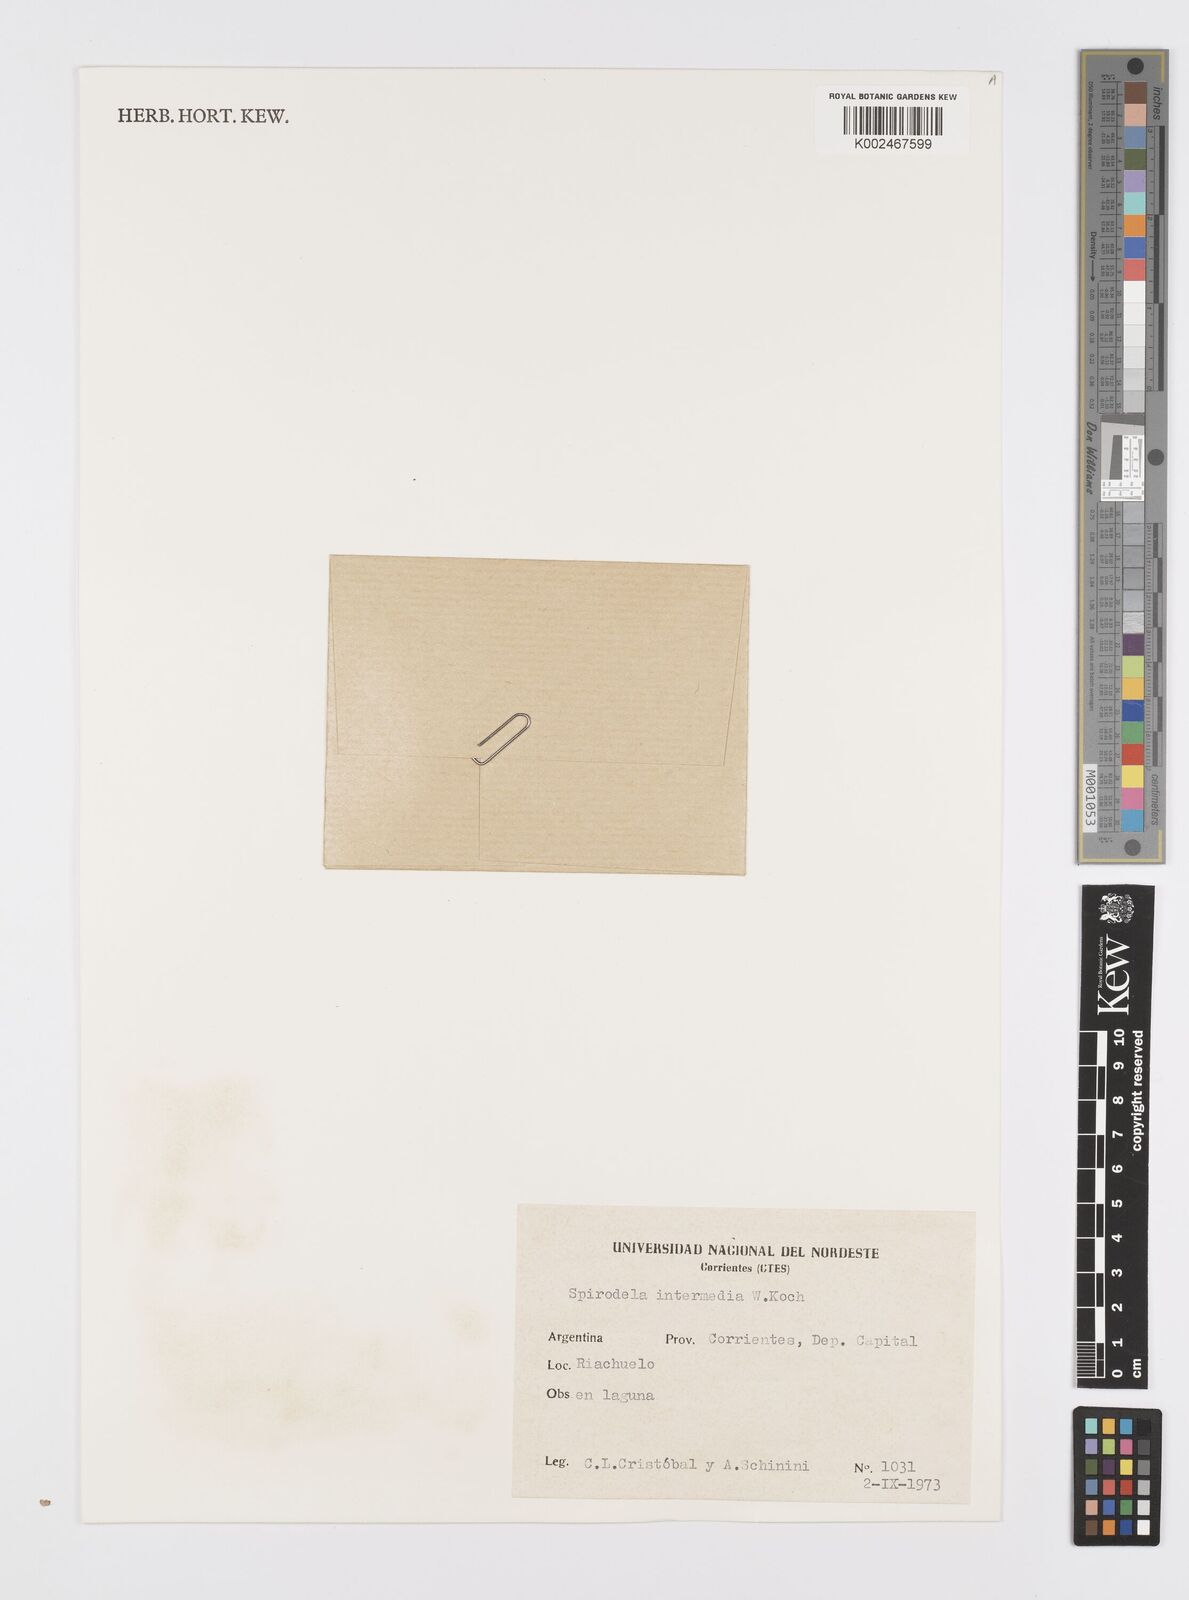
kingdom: Plantae
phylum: Tracheophyta
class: Liliopsida
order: Alismatales
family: Araceae
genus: Spirodela
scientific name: Spirodela punctata
